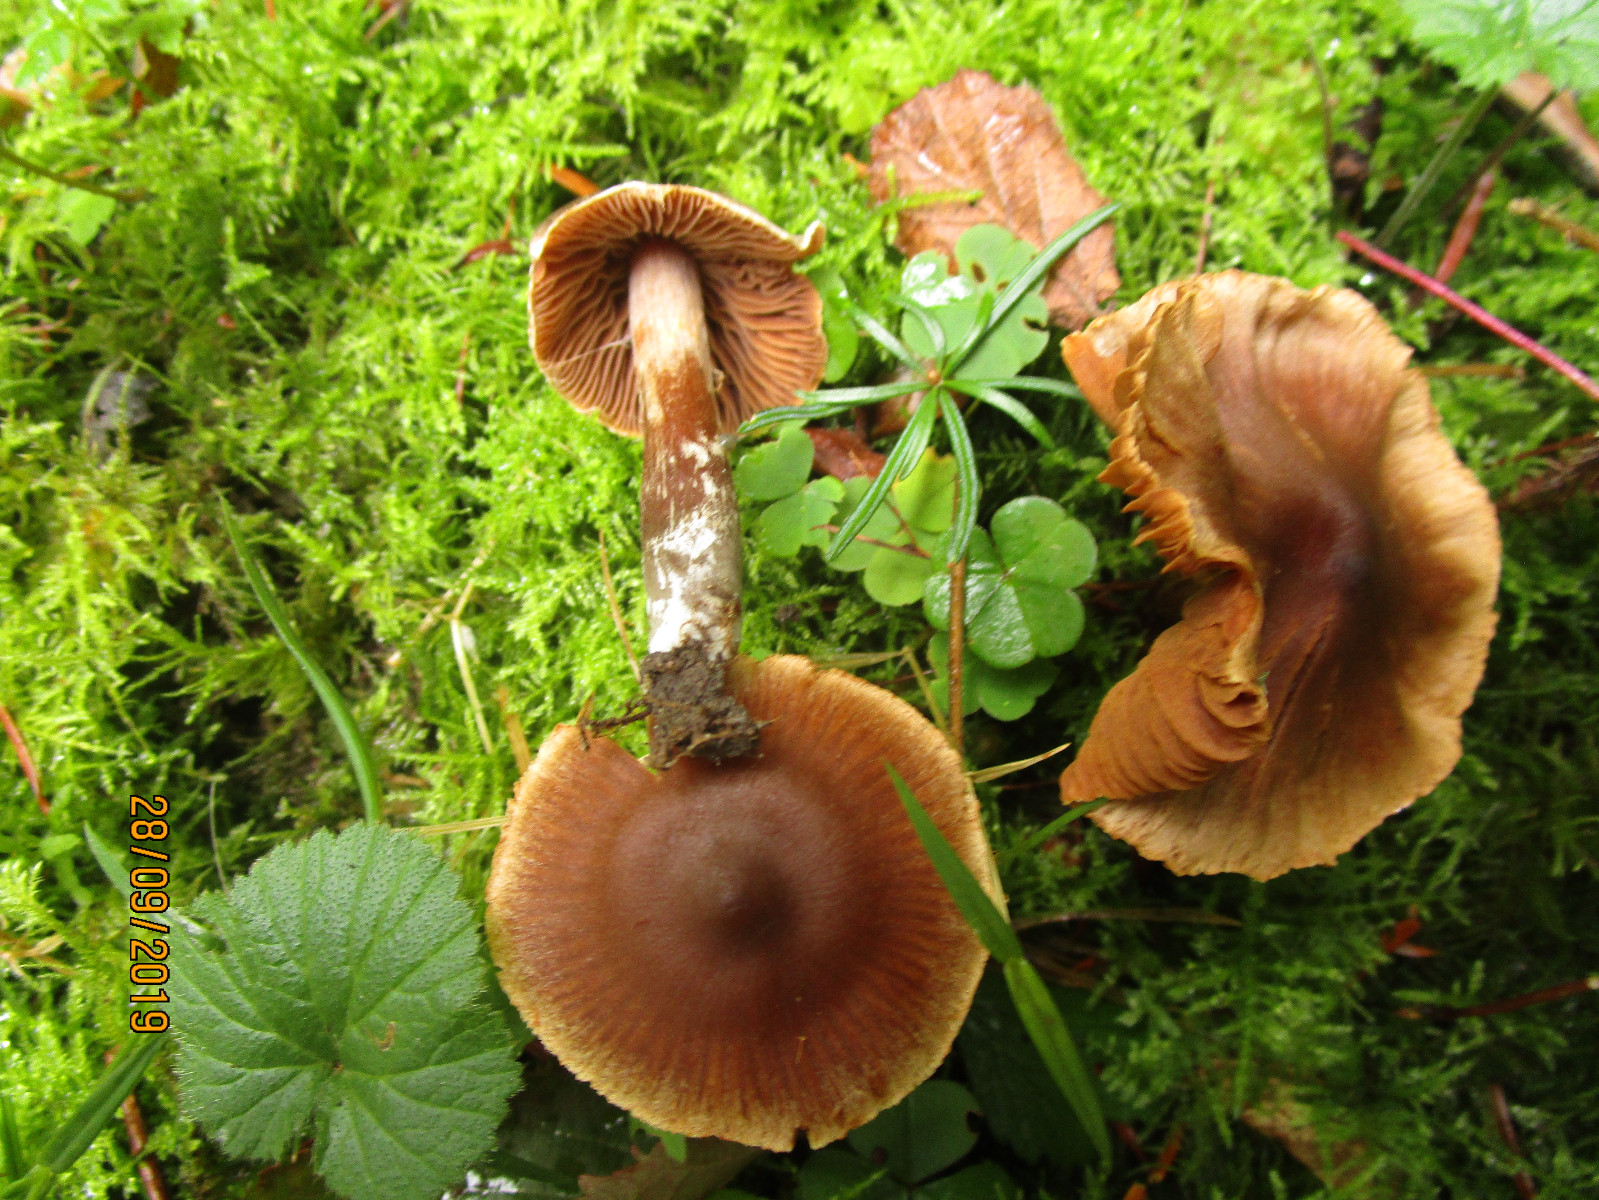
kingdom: Fungi
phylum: Basidiomycota
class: Agaricomycetes
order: Agaricales
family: Cortinariaceae
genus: Cortinarius
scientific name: Cortinarius
